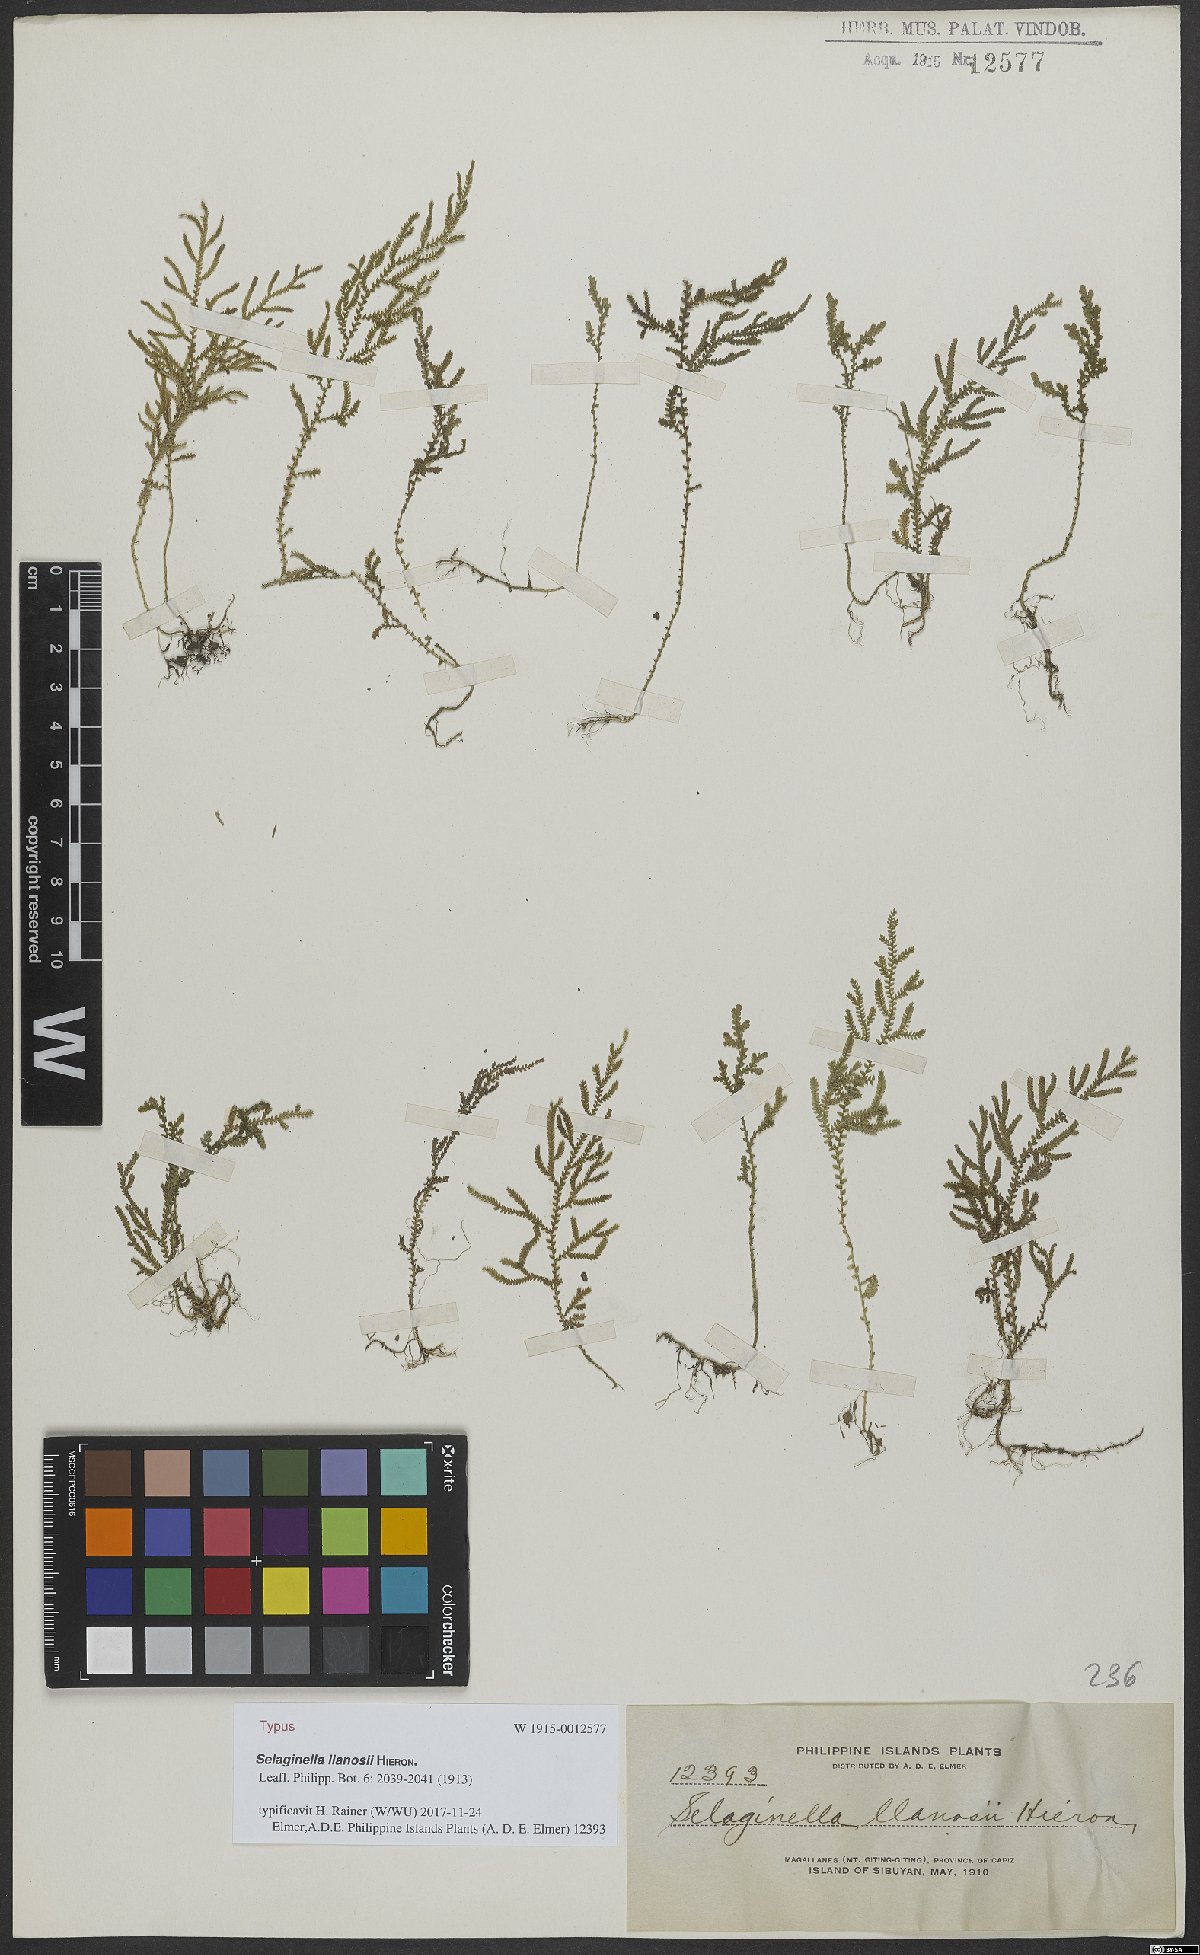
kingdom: Plantae
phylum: Tracheophyta
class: Lycopodiopsida
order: Selaginellales
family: Selaginellaceae
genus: Selaginella
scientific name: Selaginella llanosii
